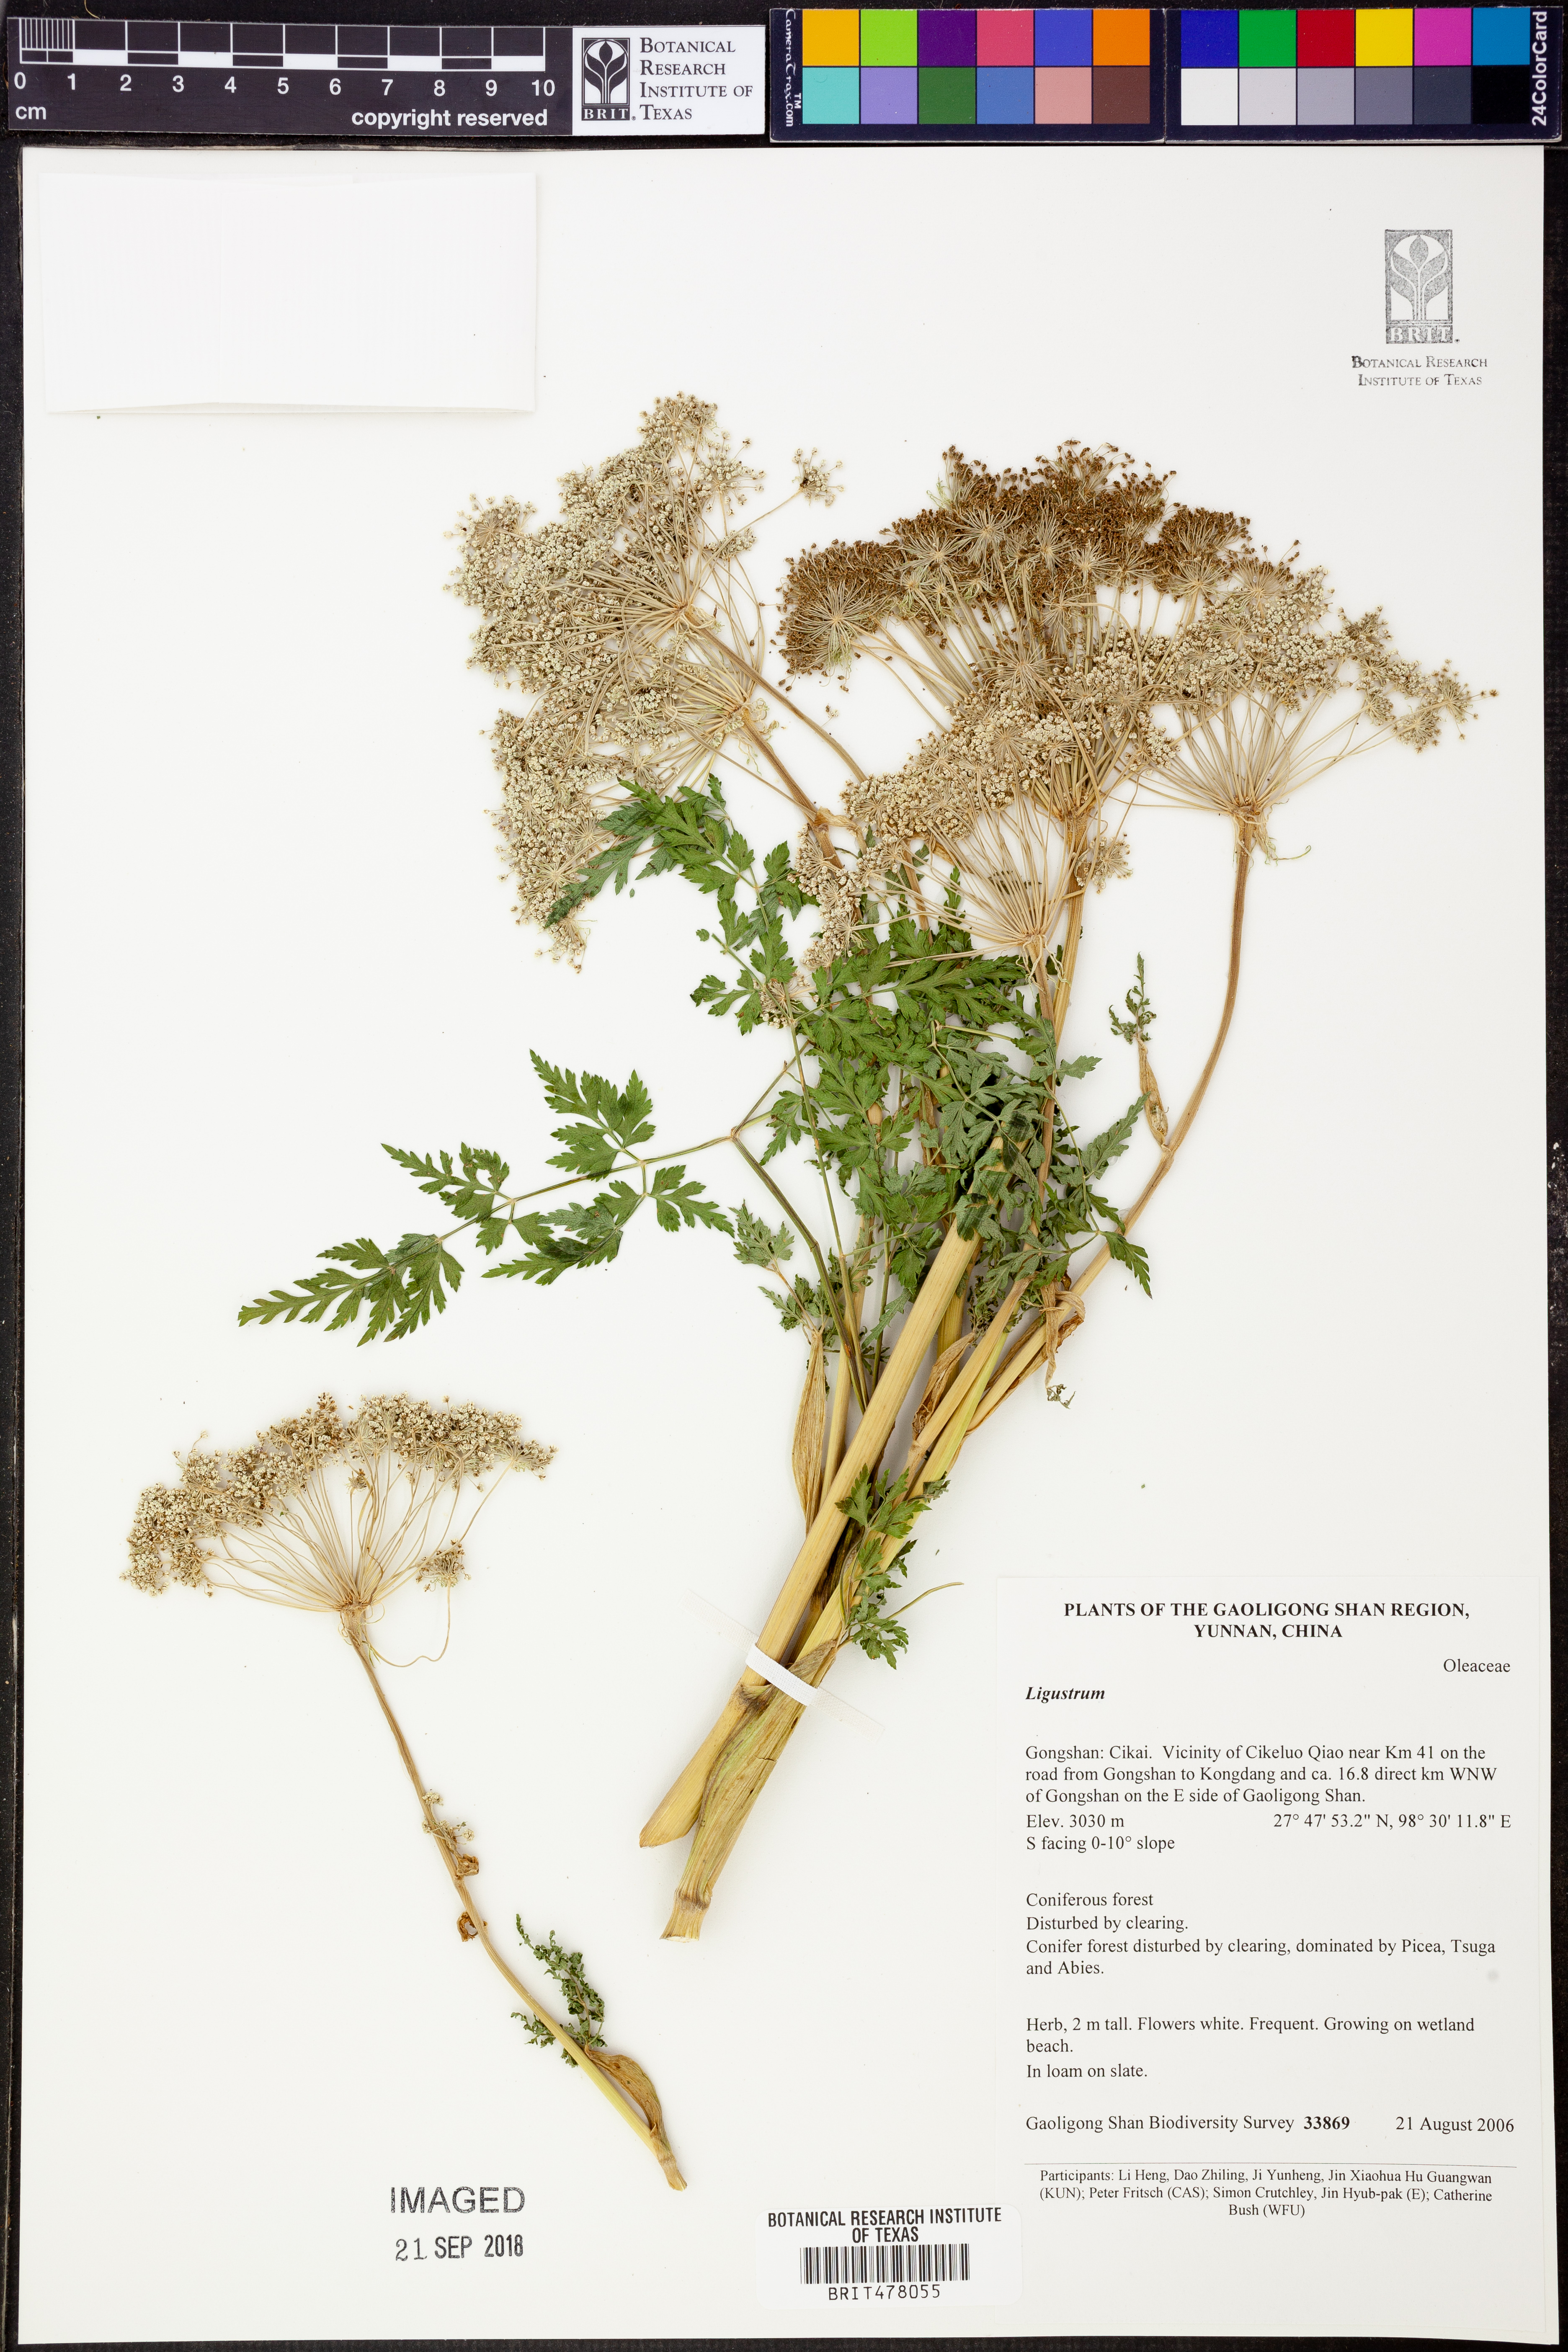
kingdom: Plantae
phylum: Tracheophyta
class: Magnoliopsida
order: Lamiales
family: Oleaceae
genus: Ligustrum
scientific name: Ligustrum
